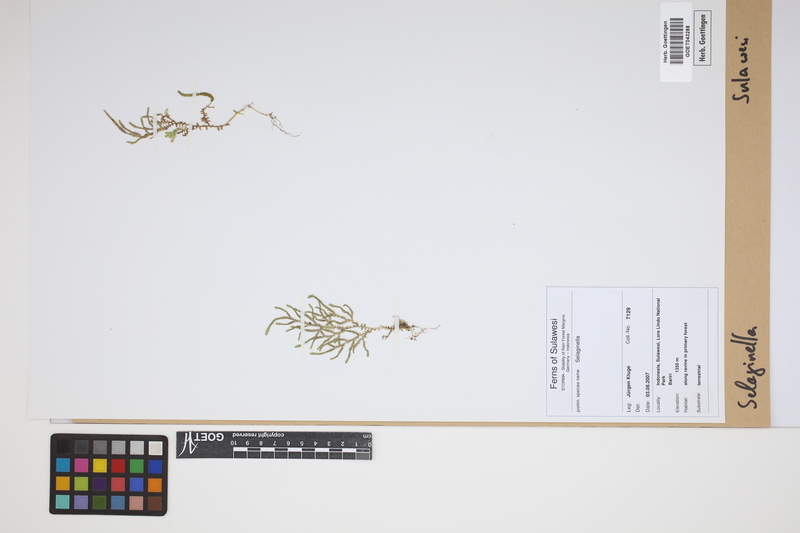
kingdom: Plantae
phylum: Tracheophyta
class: Lycopodiopsida
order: Selaginellales
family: Selaginellaceae
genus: Selaginella
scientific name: Selaginella
